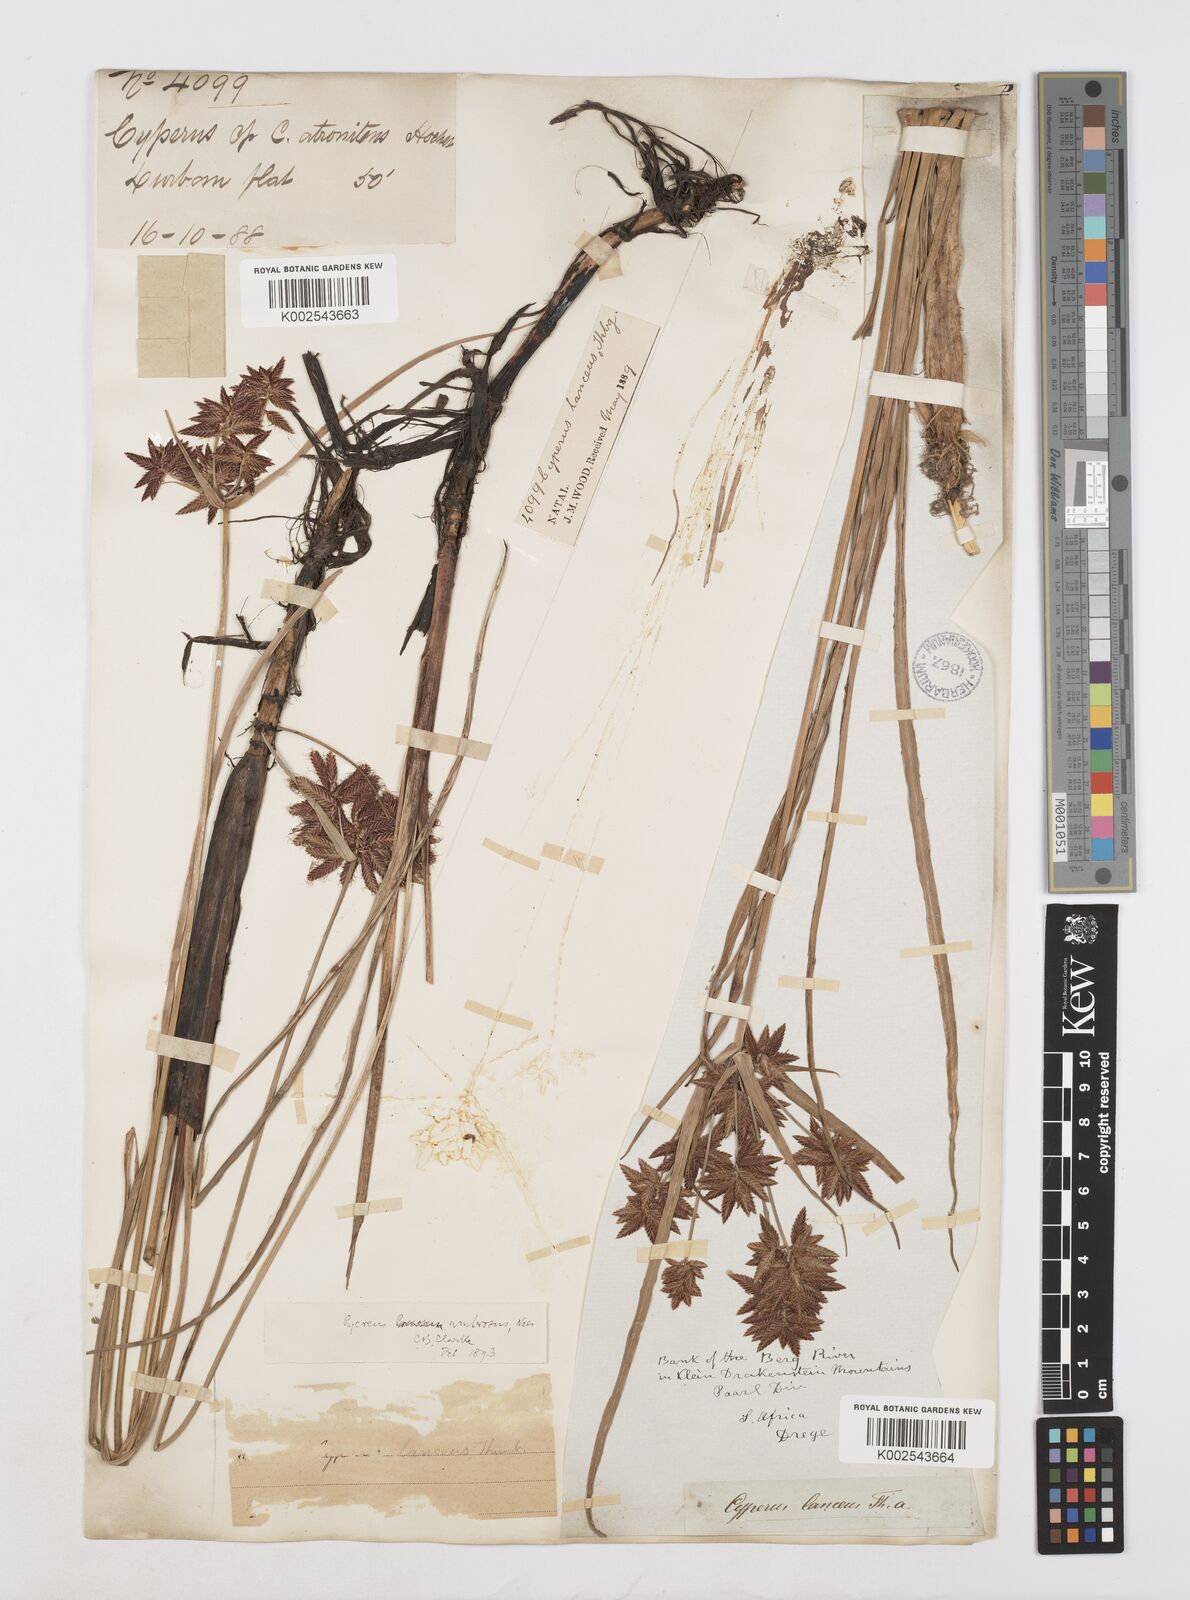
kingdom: Plantae
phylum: Tracheophyta
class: Liliopsida
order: Poales
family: Cyperaceae
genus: Cyperus
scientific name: Cyperus nitidus
